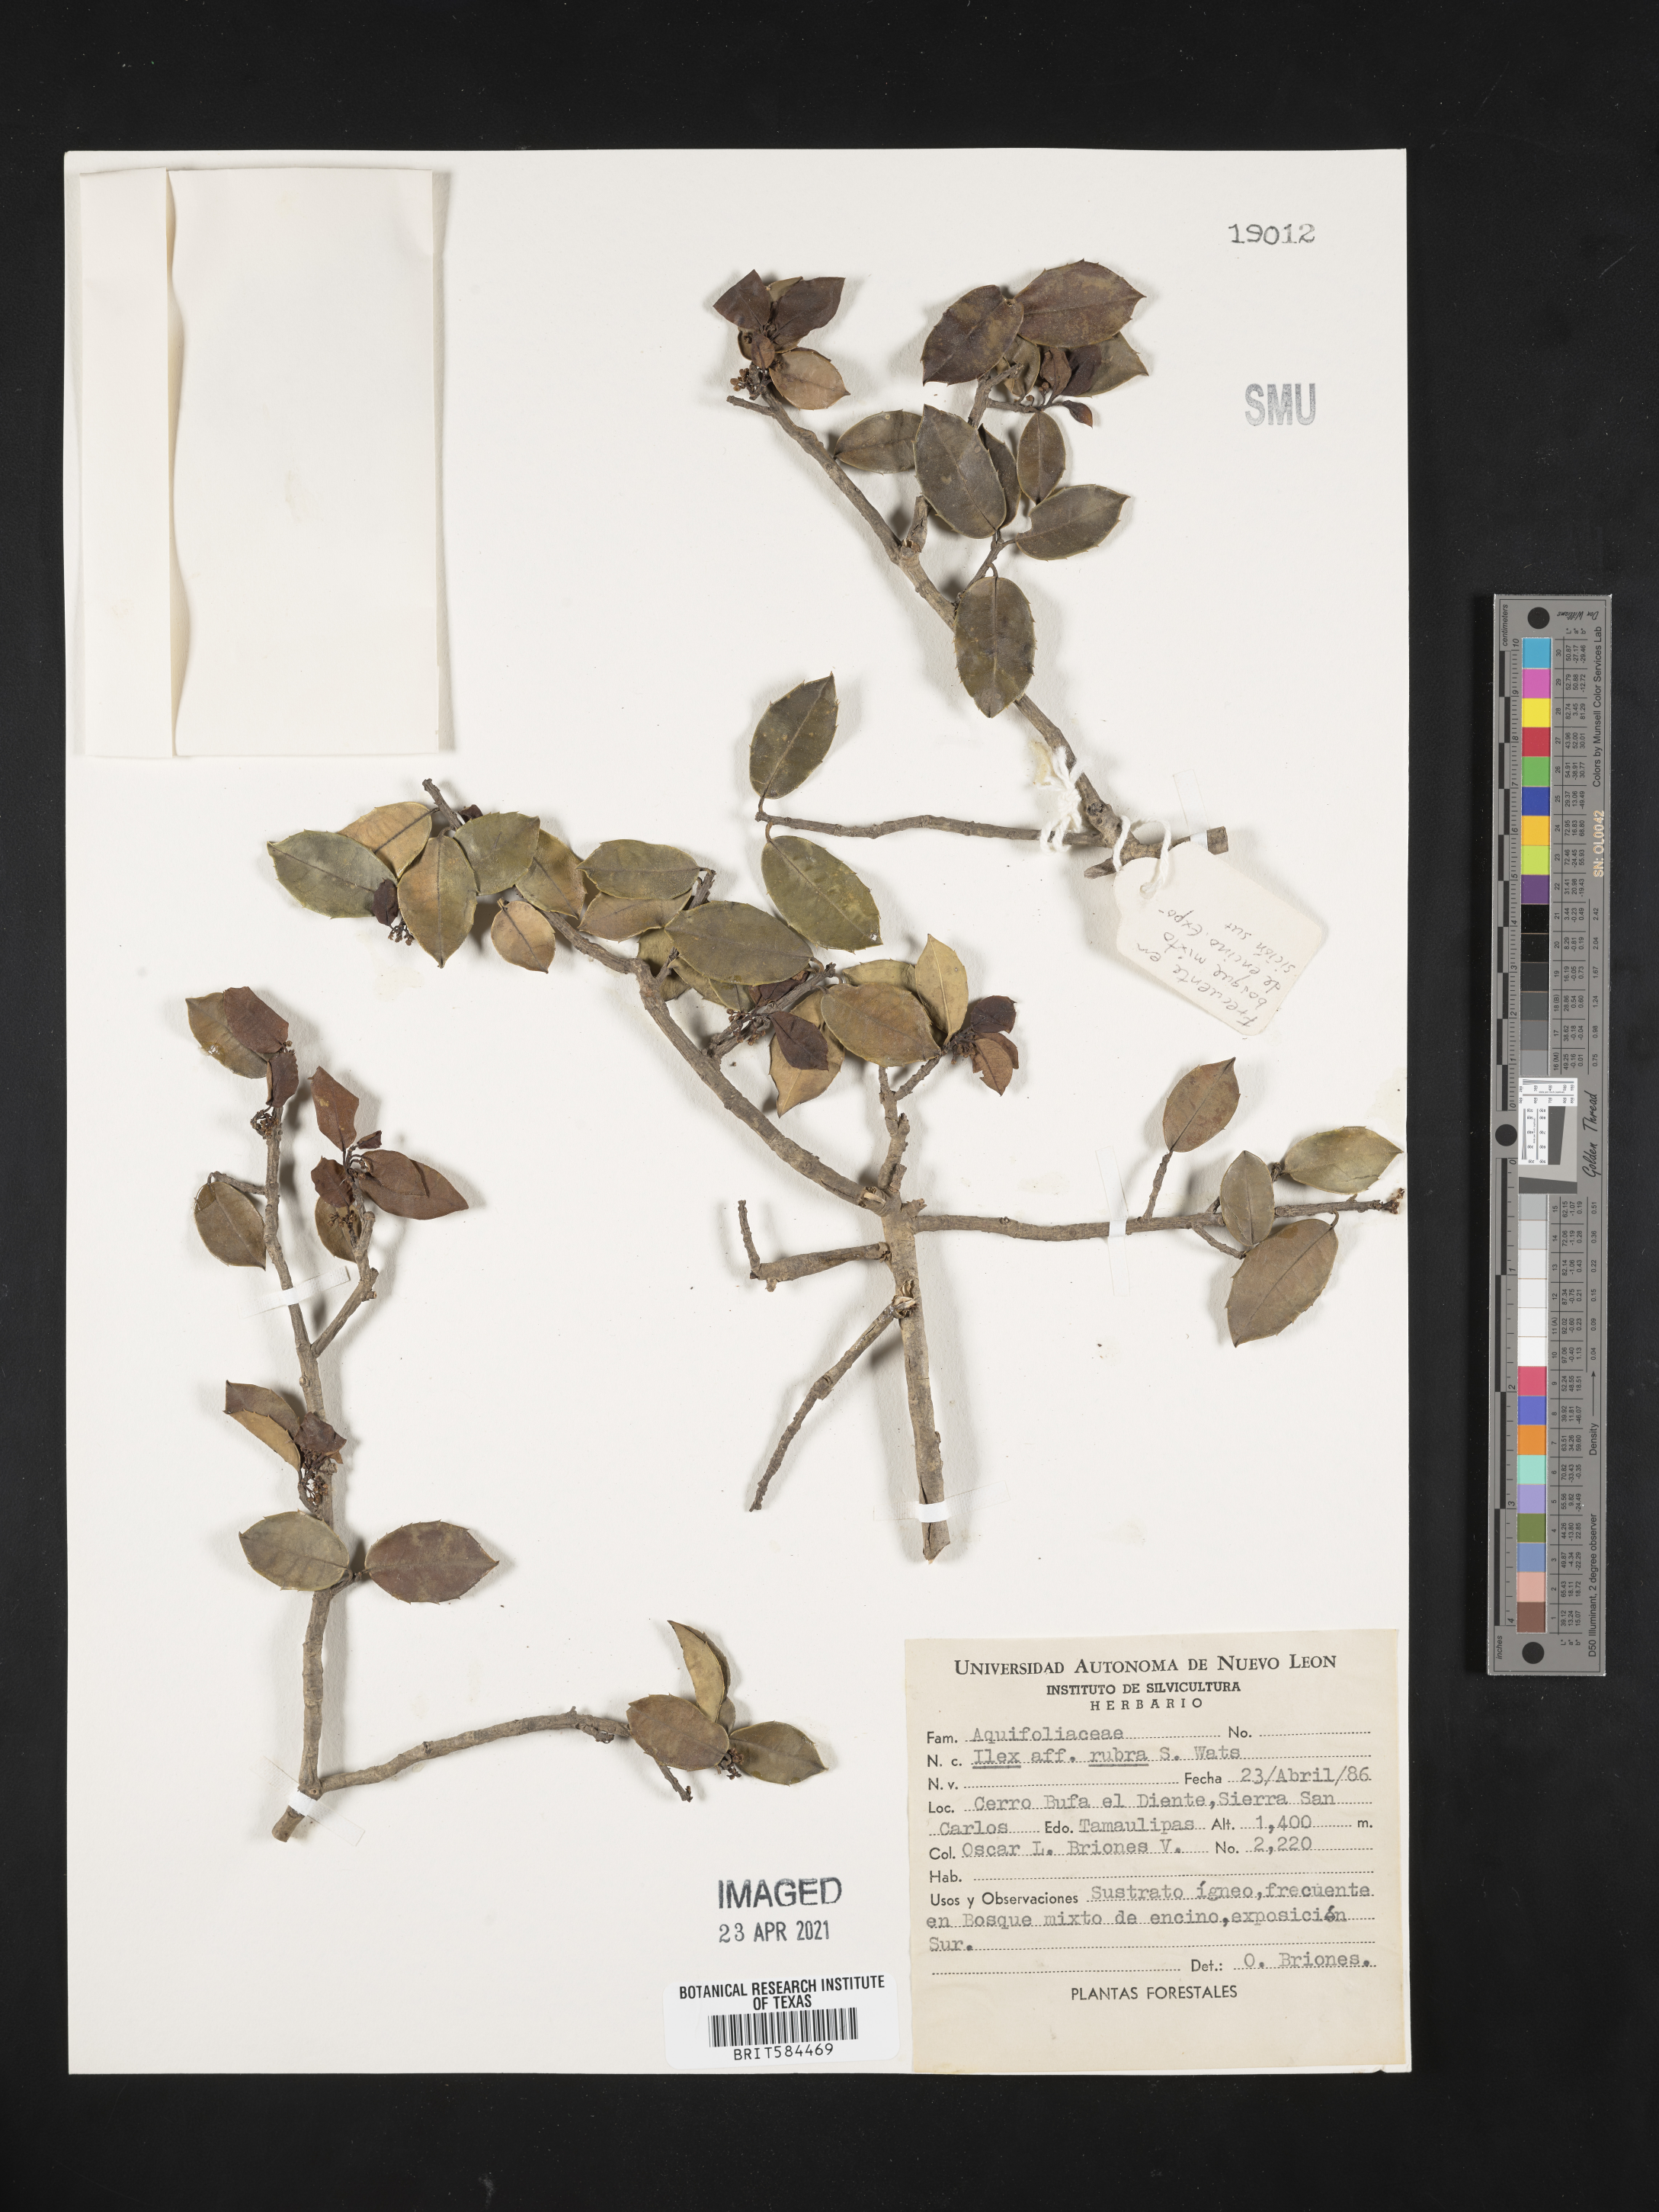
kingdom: Plantae
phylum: Tracheophyta
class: Magnoliopsida
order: Aquifoliales
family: Aquifoliaceae
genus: Ilex
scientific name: Ilex rubra
